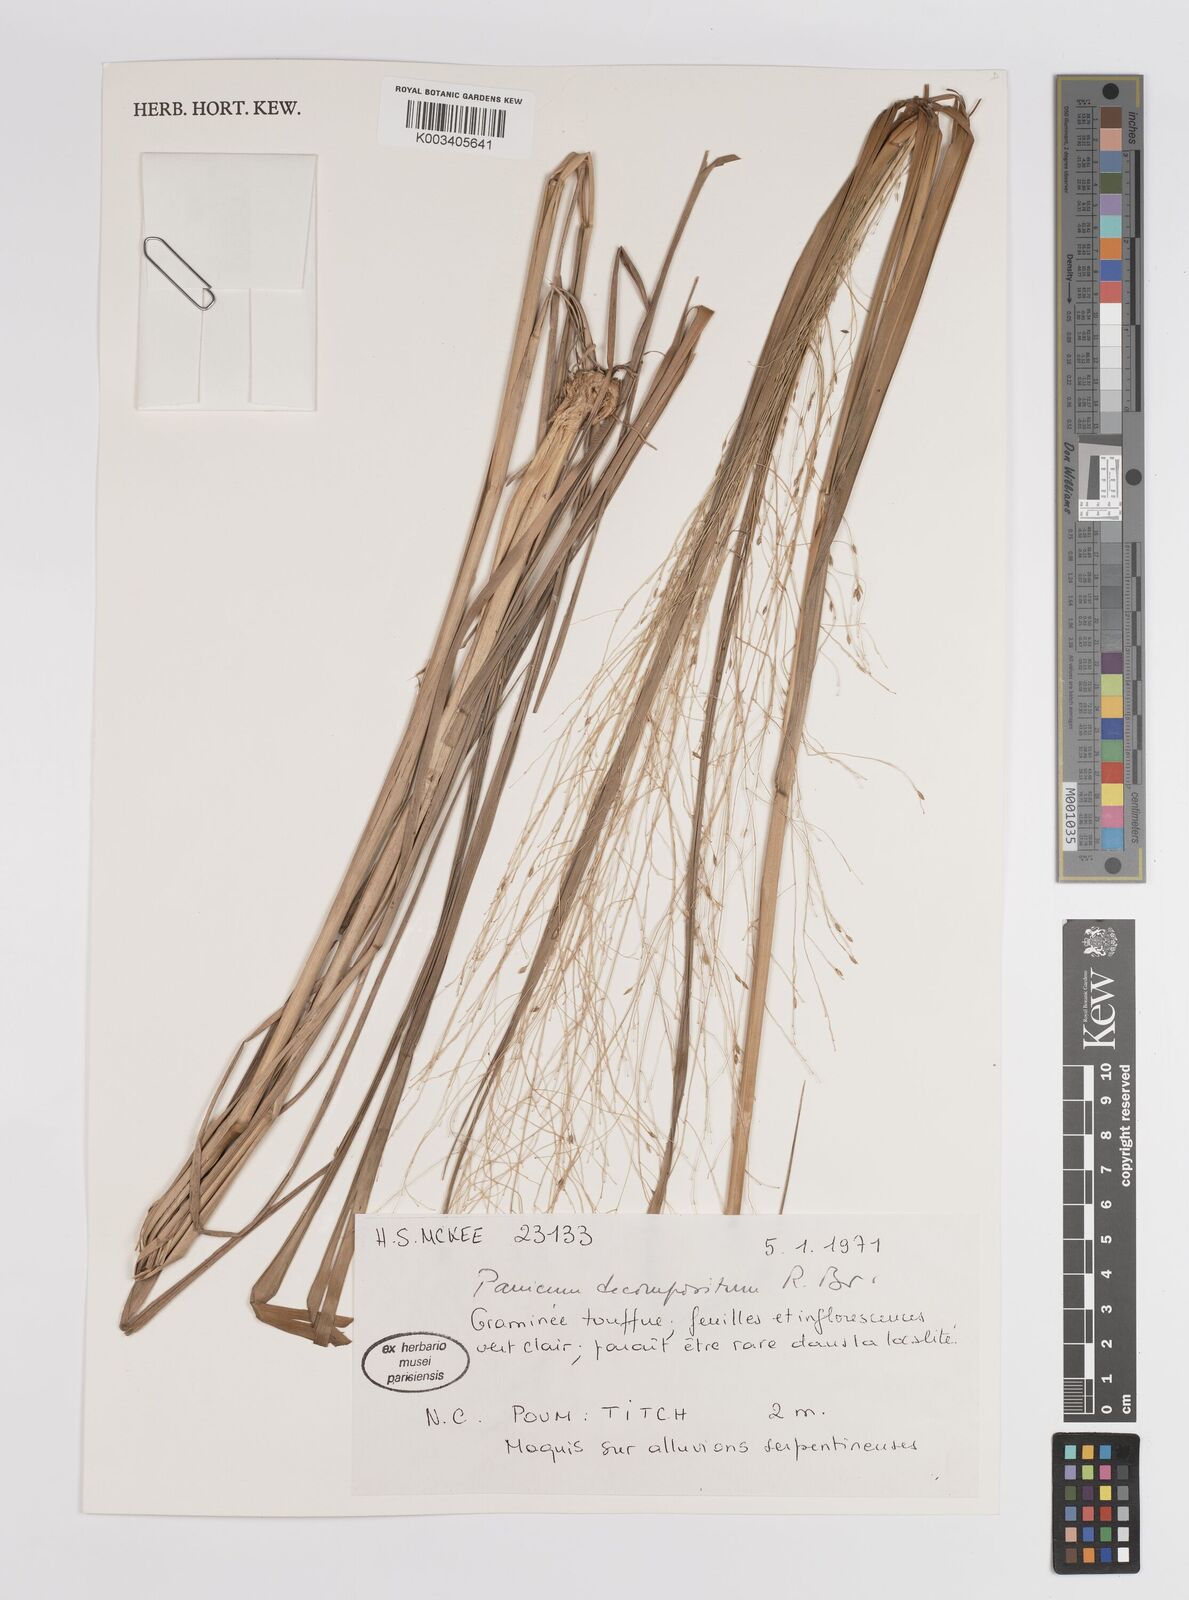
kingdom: Plantae
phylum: Tracheophyta
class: Liliopsida
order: Poales
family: Poaceae
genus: Panicum
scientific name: Panicum decompositum
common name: Australian millet
